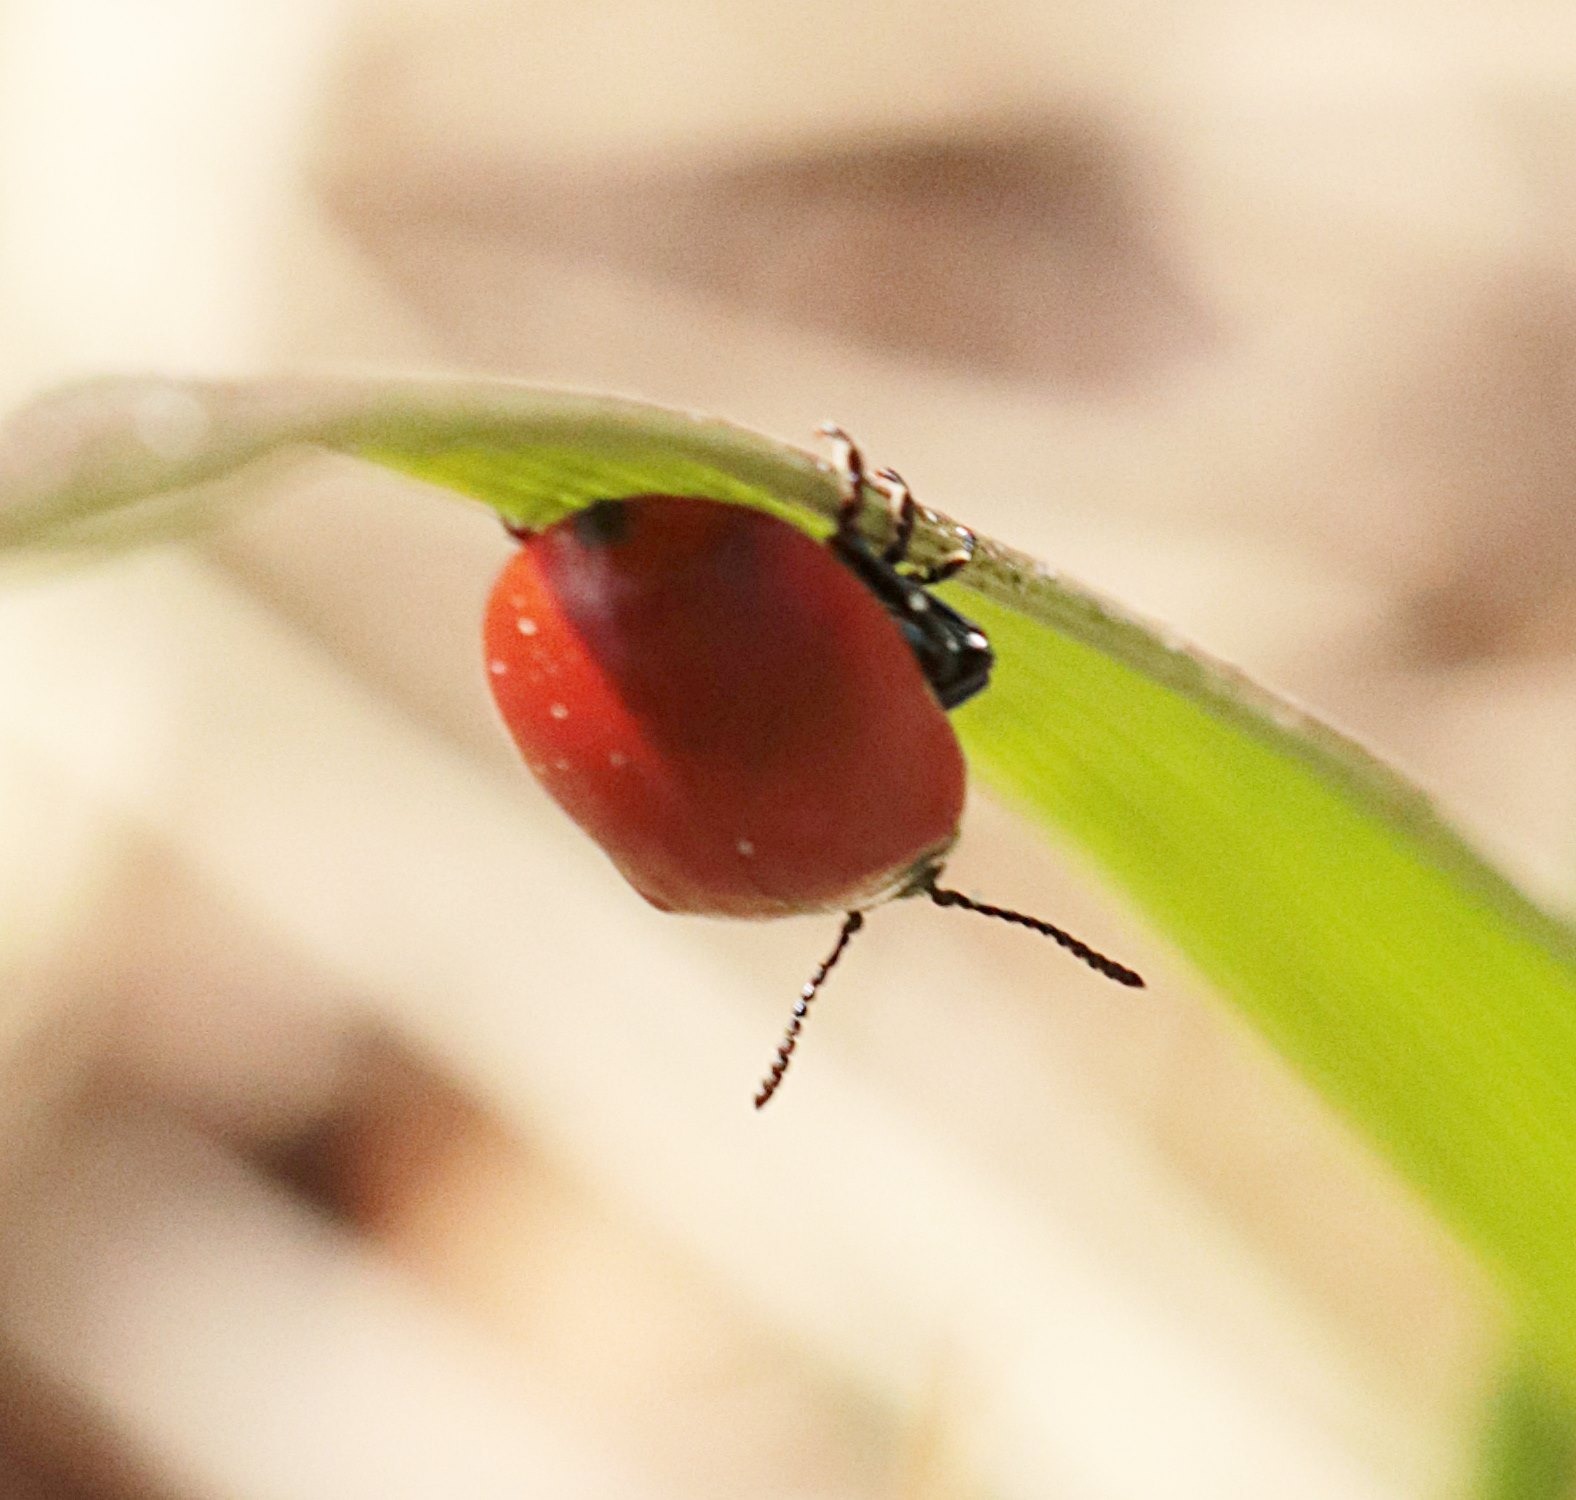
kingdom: Animalia
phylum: Arthropoda
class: Insecta
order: Coleoptera
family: Chrysomelidae
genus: Chrysomela
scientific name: Chrysomela populi
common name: Poppelbladbille
